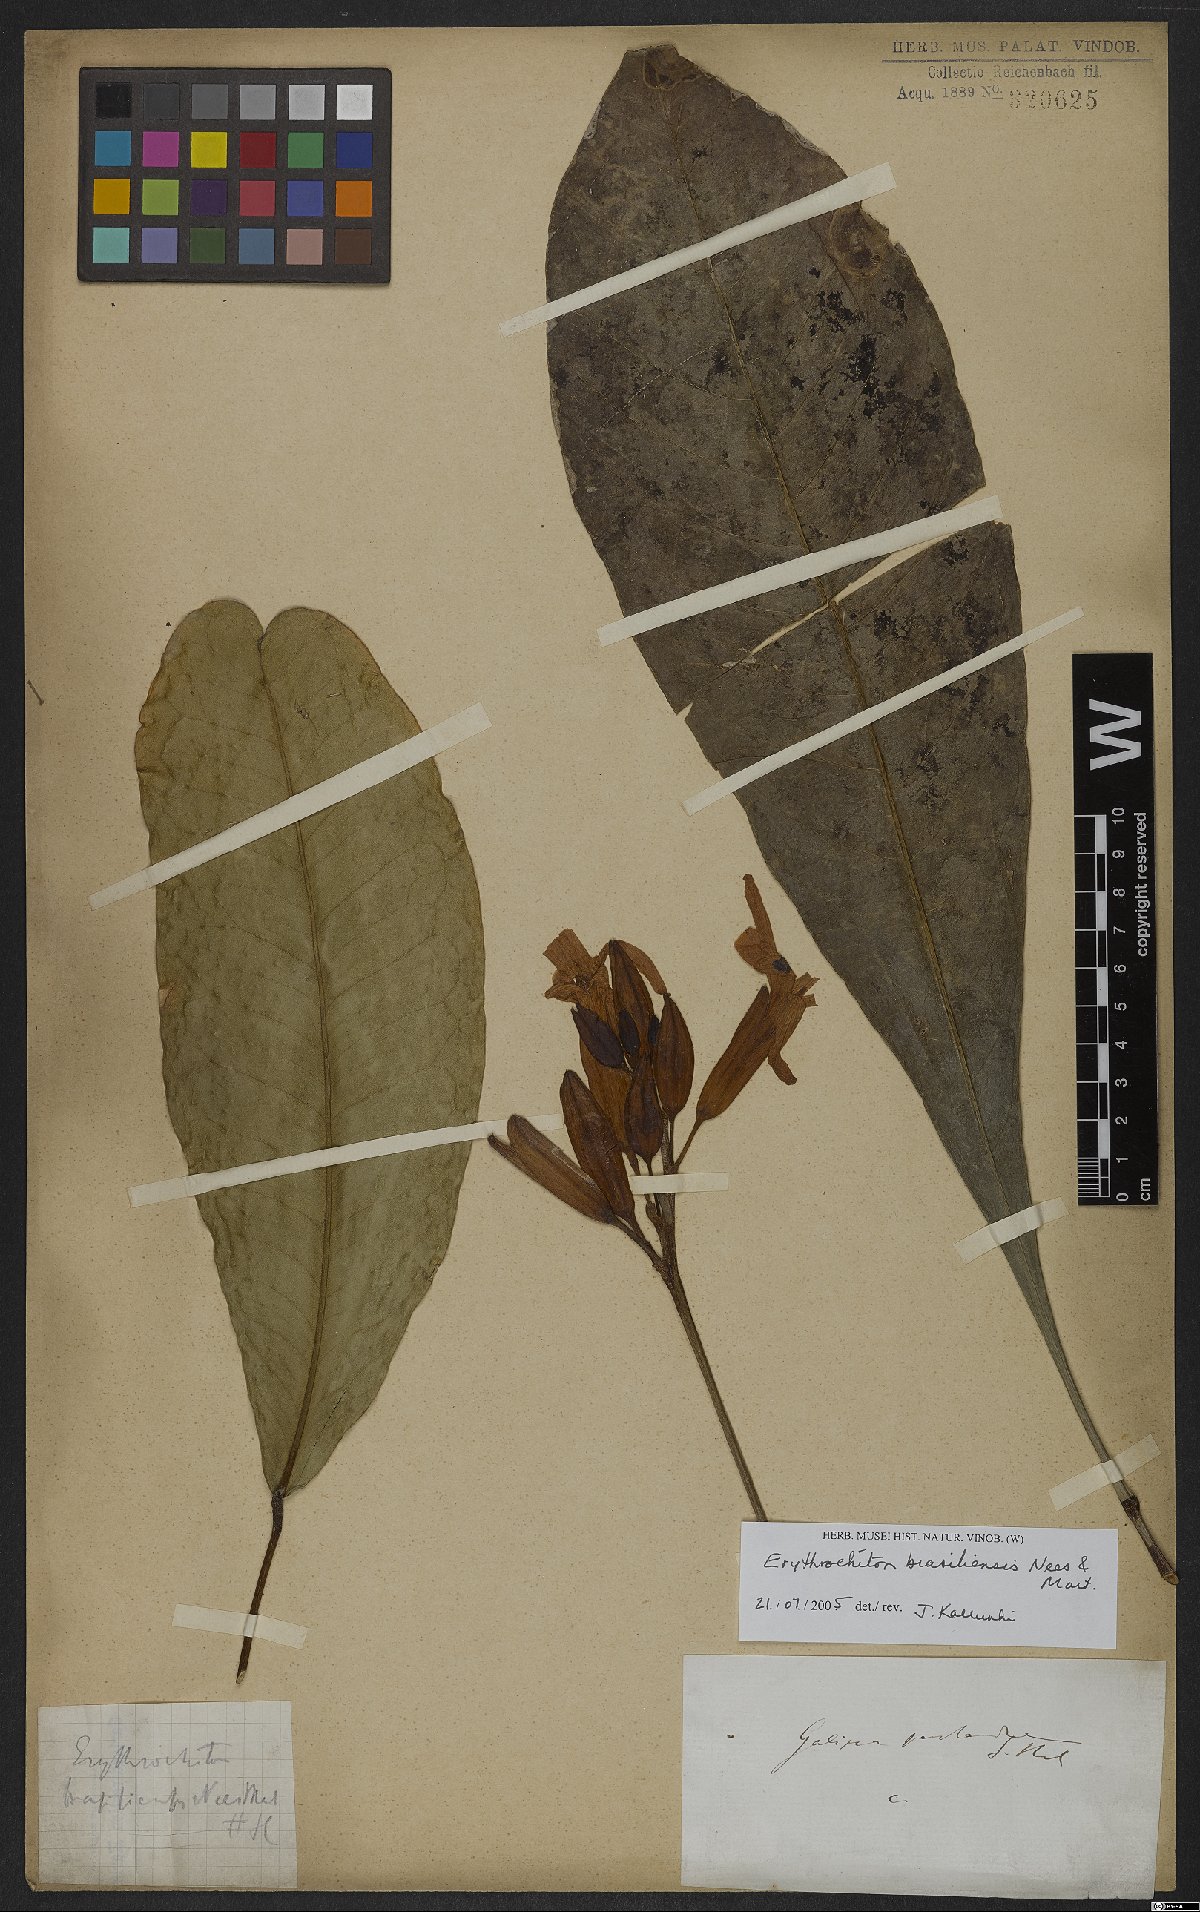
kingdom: Plantae
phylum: Tracheophyta
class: Magnoliopsida
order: Sapindales
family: Rutaceae
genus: Erythrochiton
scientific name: Erythrochiton brasiliensis
